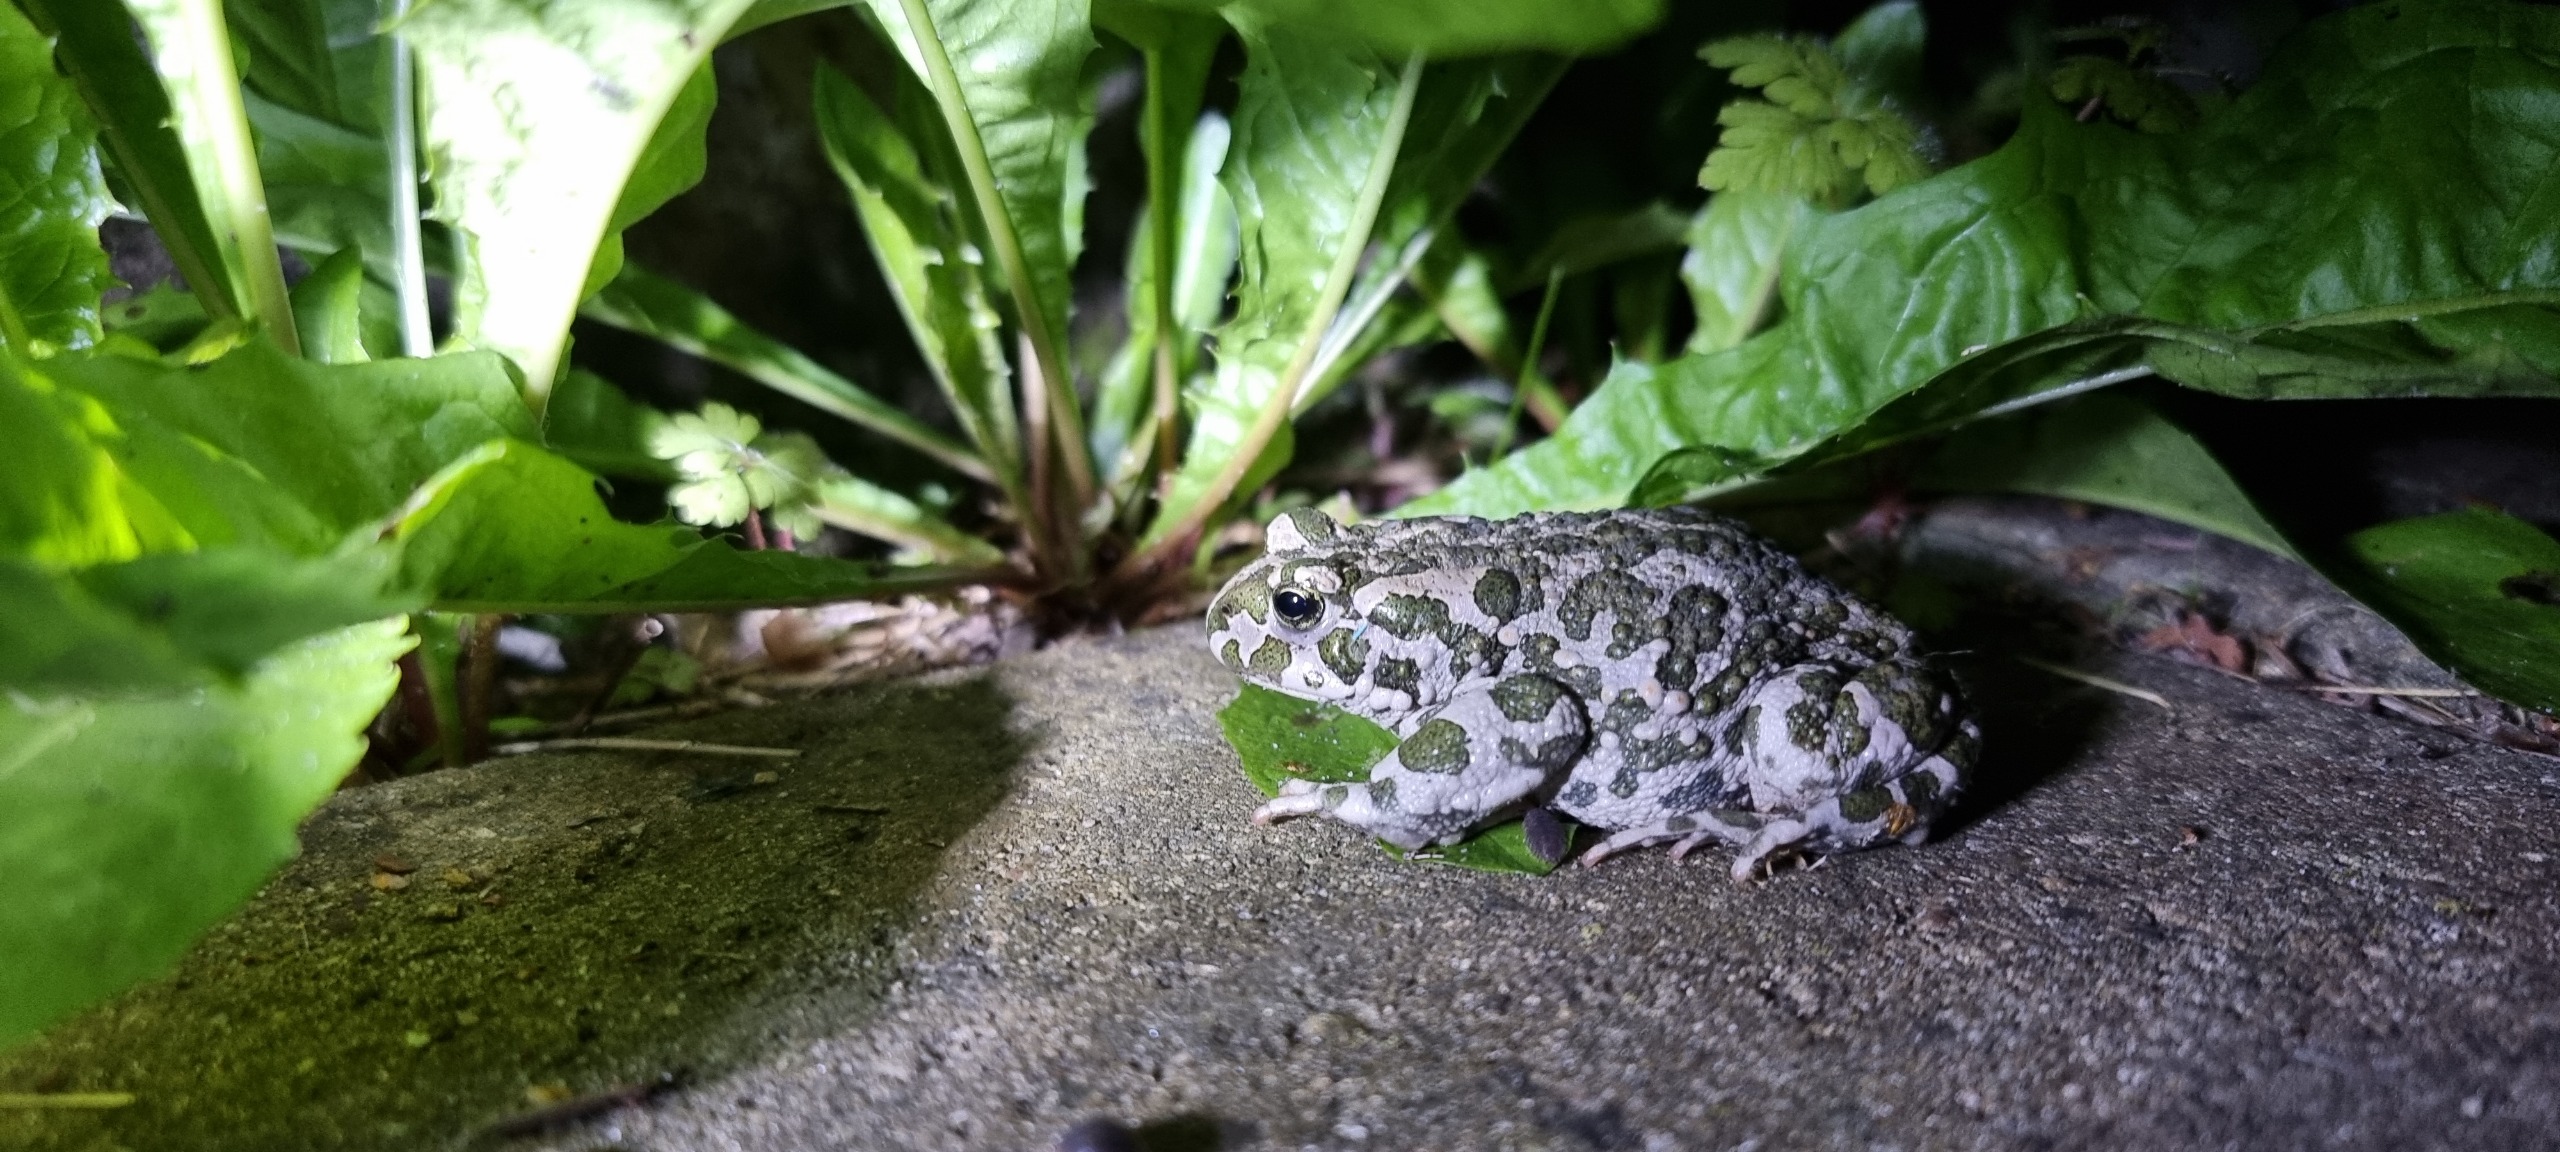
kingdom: Animalia
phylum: Chordata
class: Amphibia
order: Anura
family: Bufonidae
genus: Bufotes
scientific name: Bufotes viridis
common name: Grønbroget tudse
